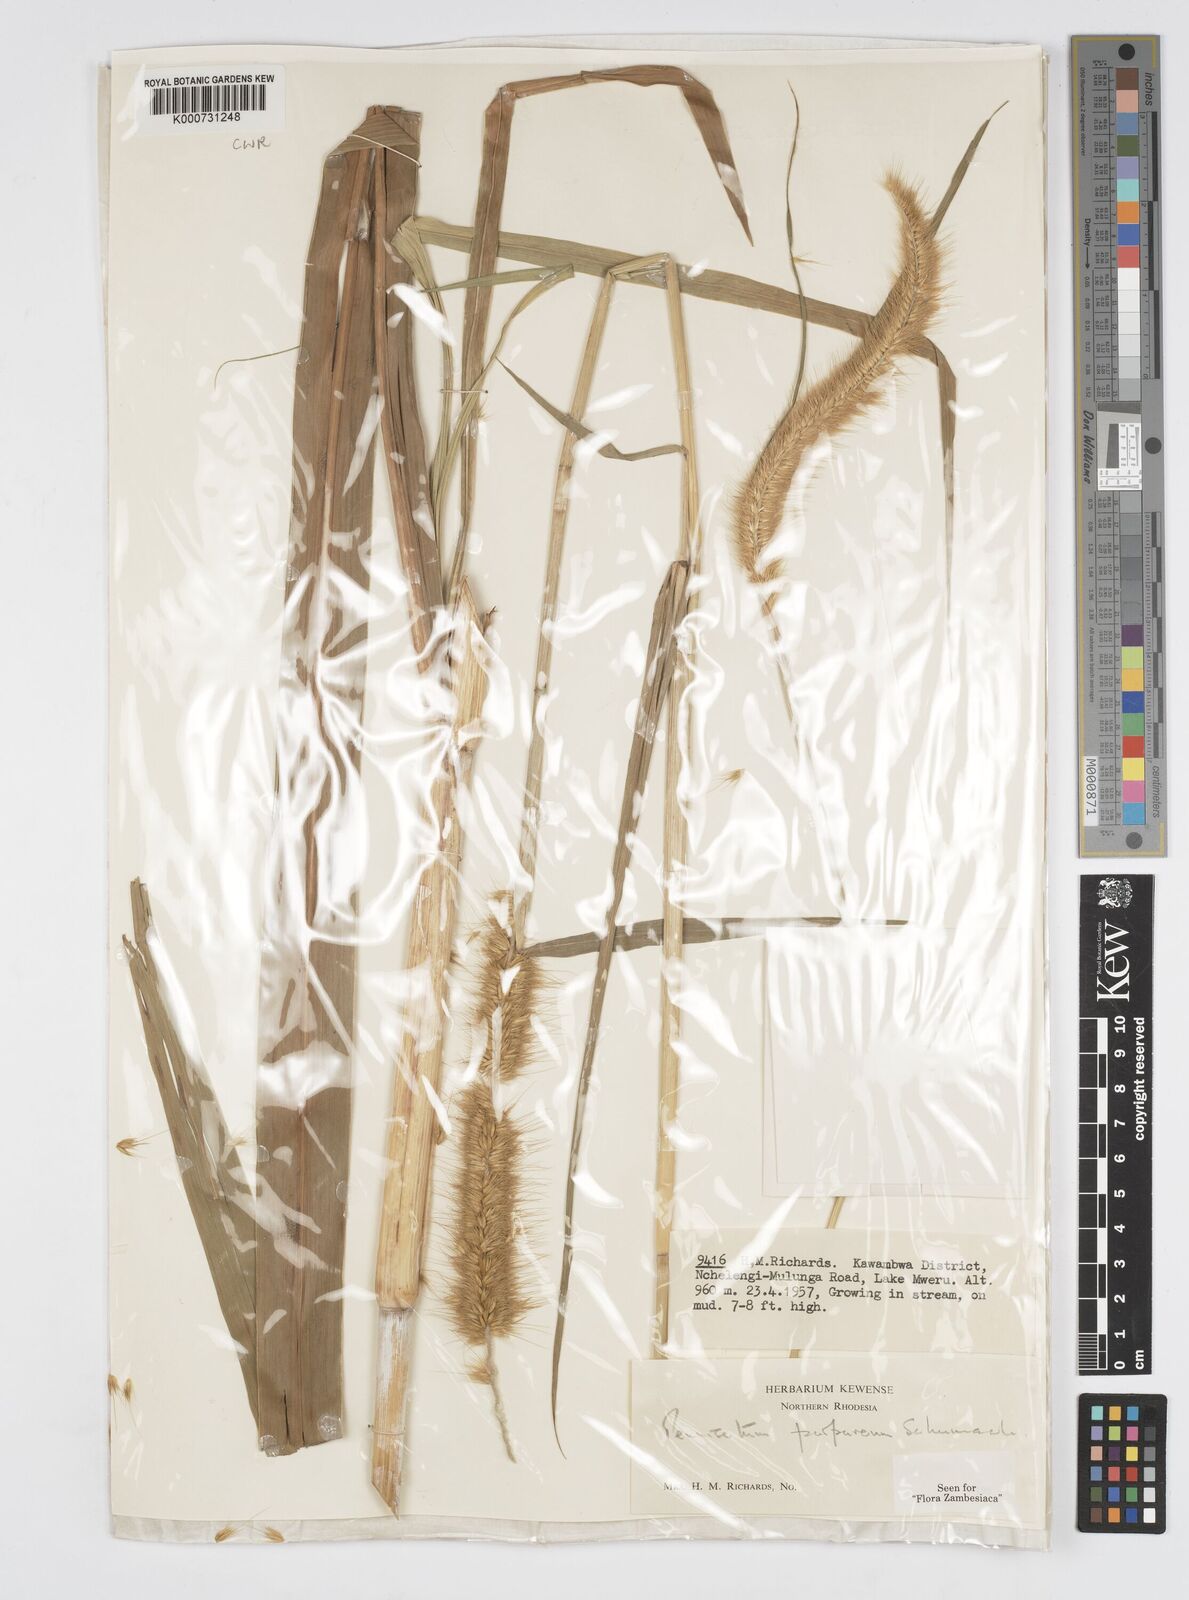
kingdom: Plantae
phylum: Tracheophyta
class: Liliopsida
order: Poales
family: Poaceae
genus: Cenchrus
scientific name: Cenchrus purpureus
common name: Elephant grass
